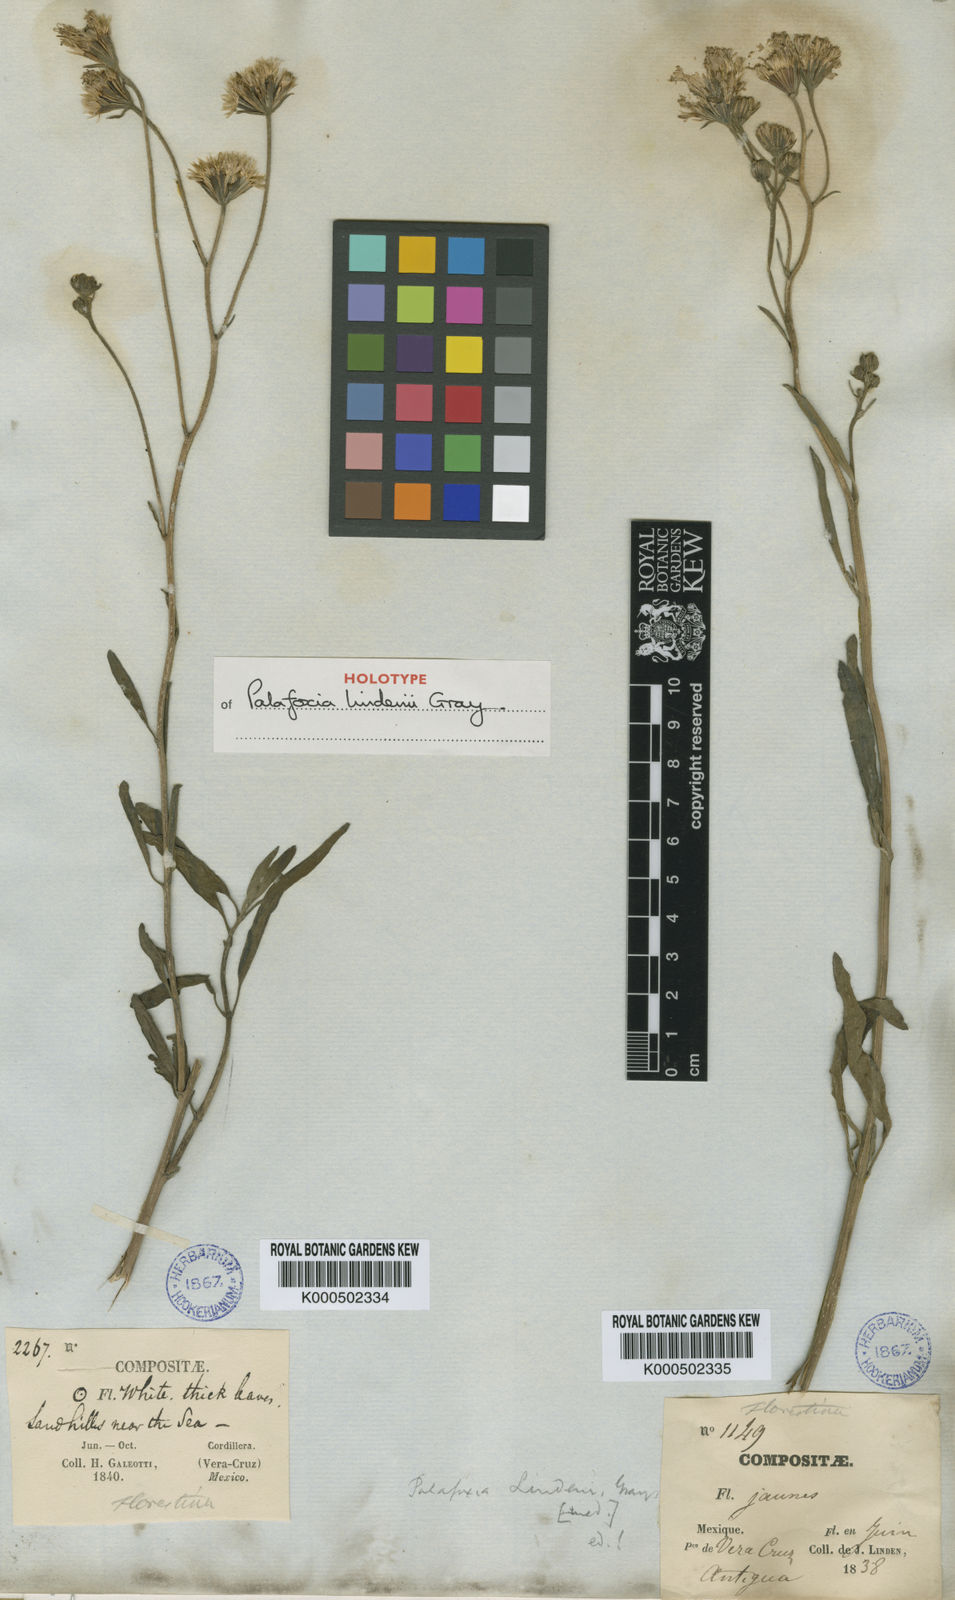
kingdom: Plantae
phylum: Tracheophyta
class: Magnoliopsida
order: Asterales
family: Asteraceae
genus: Palafoxia
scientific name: Palafoxia lindenii
